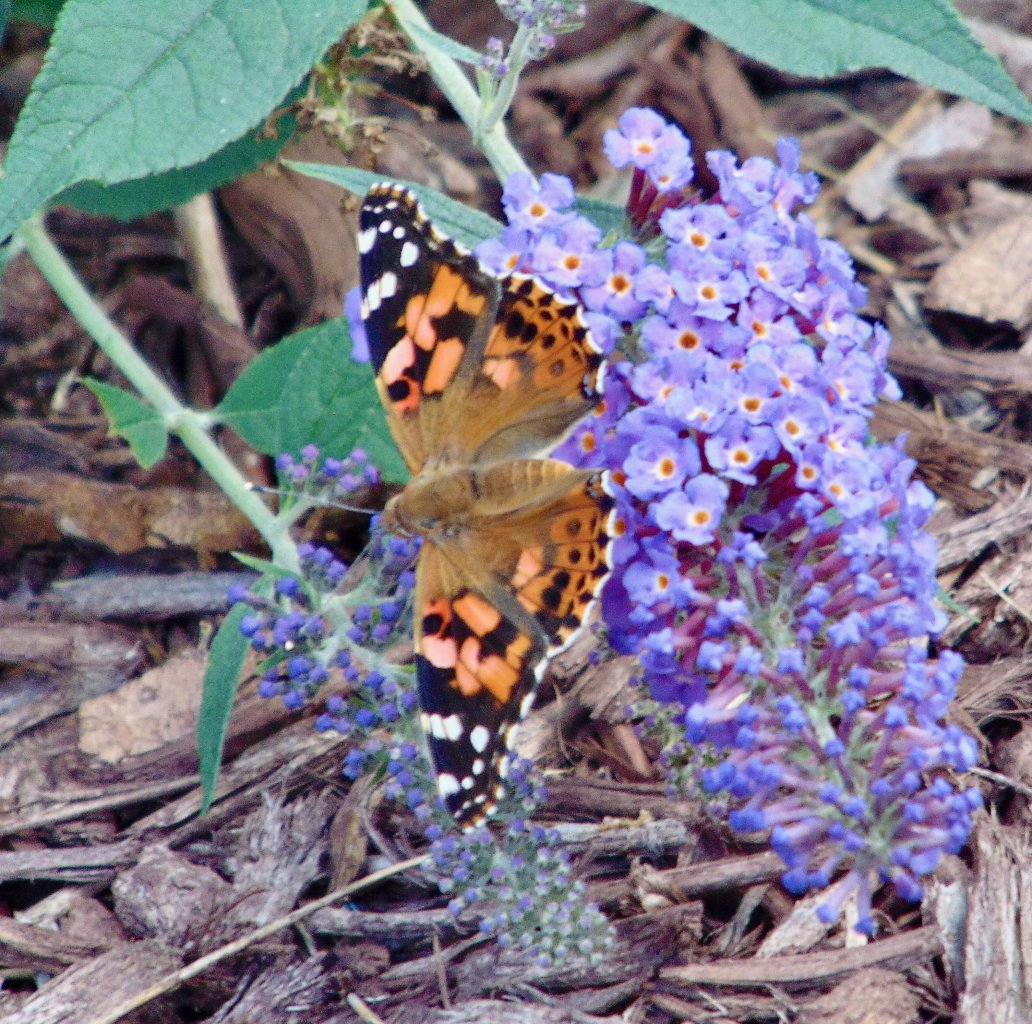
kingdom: Animalia
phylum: Arthropoda
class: Insecta
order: Lepidoptera
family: Nymphalidae
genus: Vanessa
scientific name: Vanessa cardui
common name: Painted Lady
